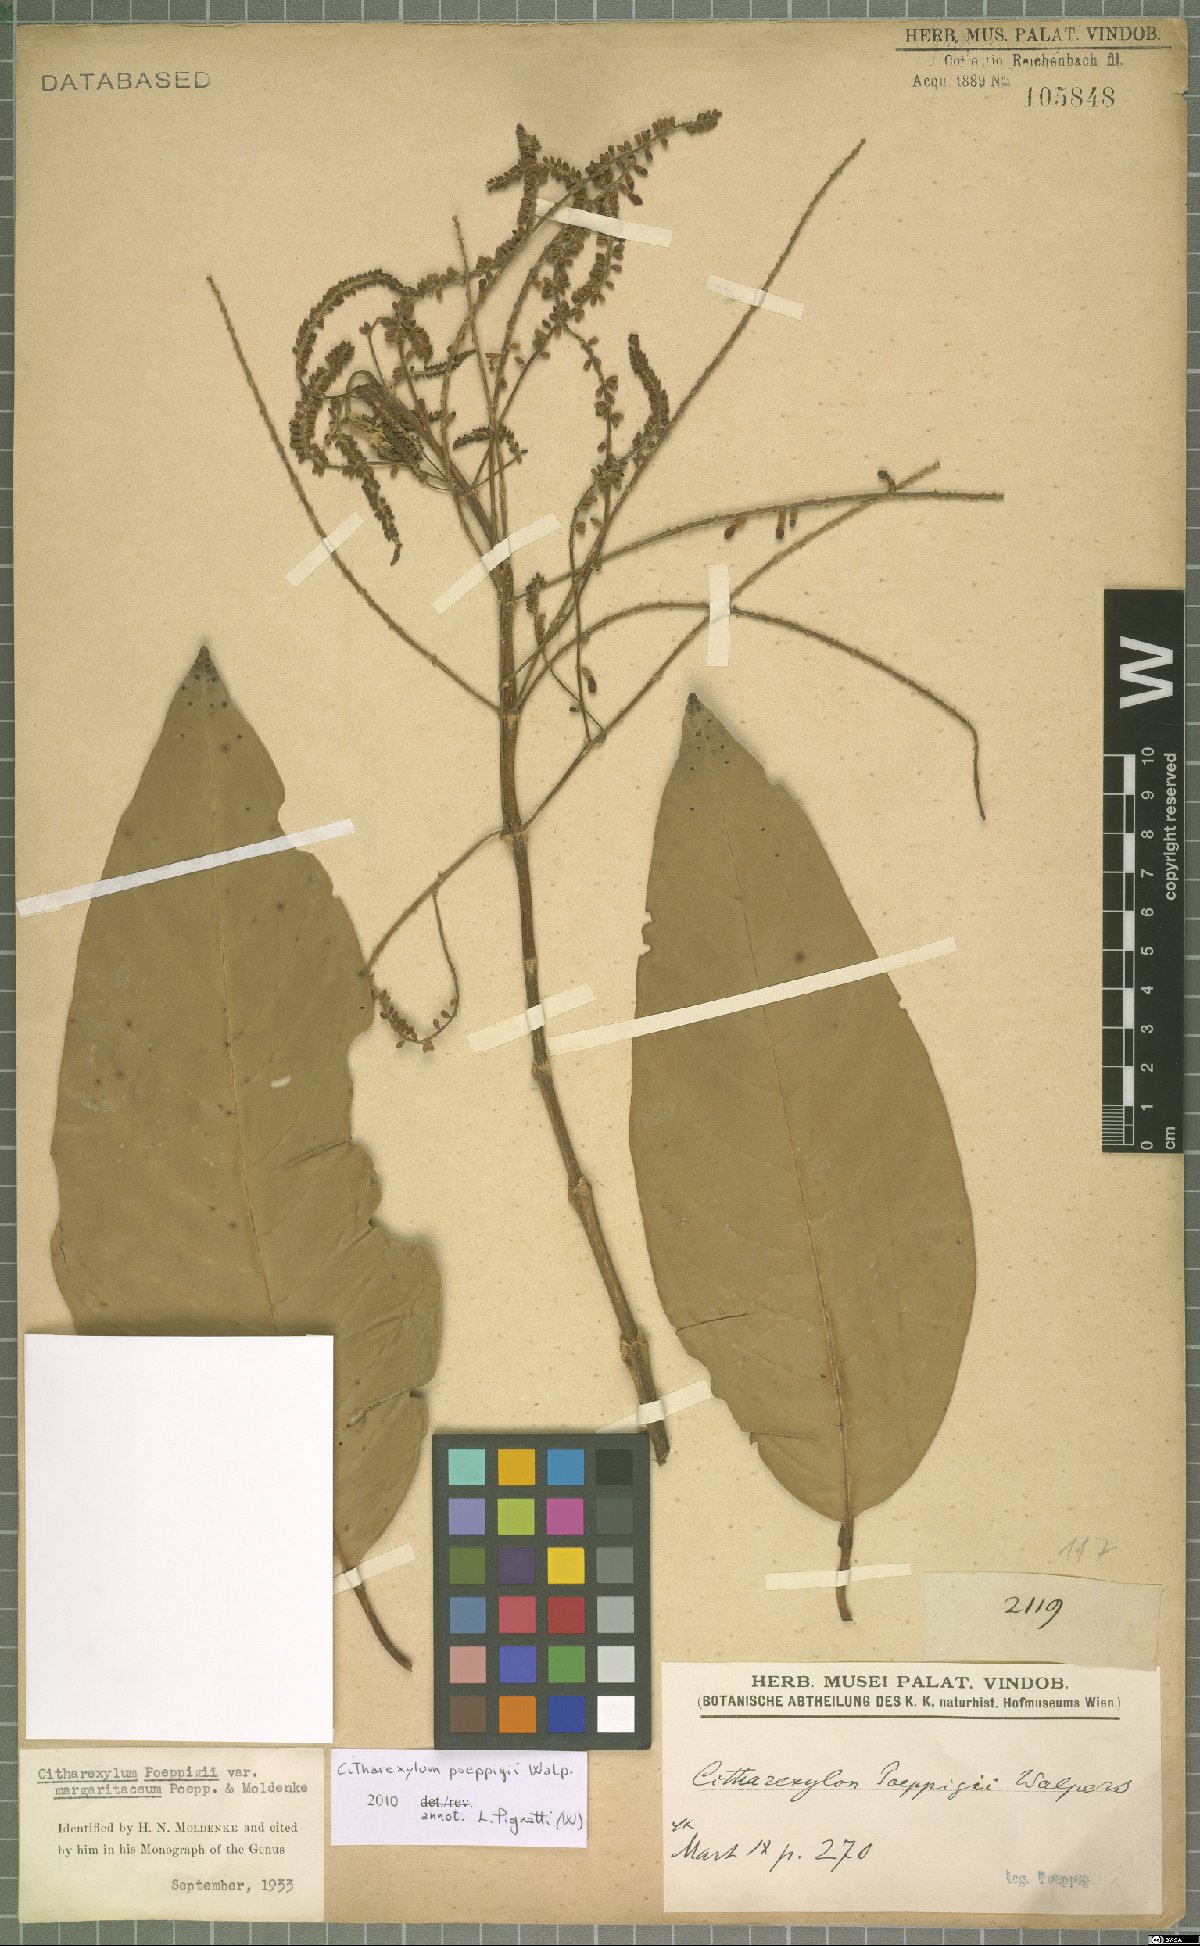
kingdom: Plantae
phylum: Tracheophyta
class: Magnoliopsida
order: Lamiales
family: Verbenaceae
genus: Citharexylum
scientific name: Citharexylum poeppigii
